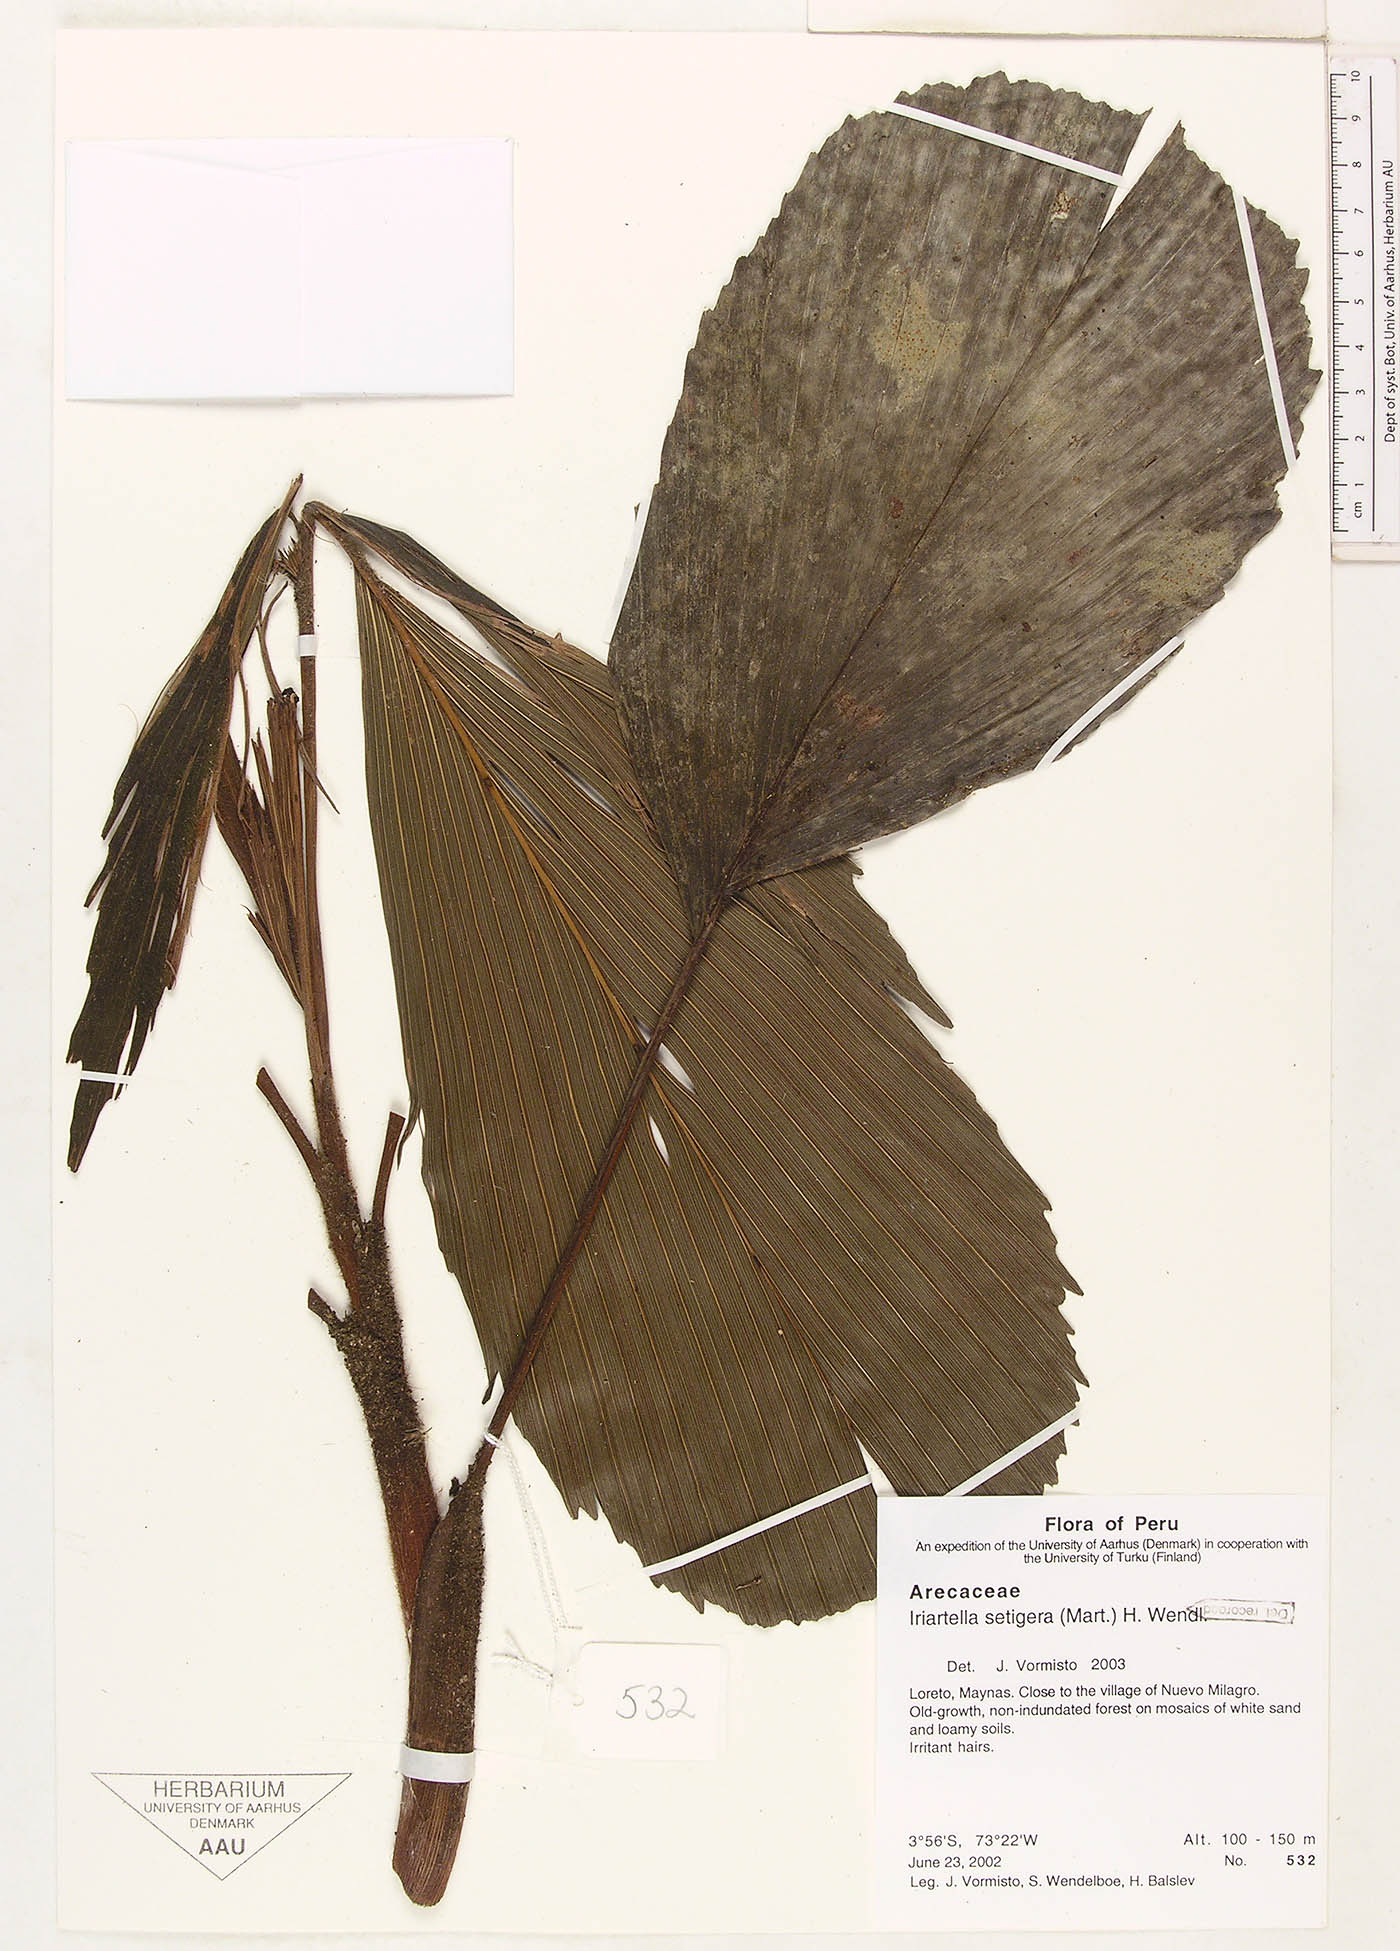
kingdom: Plantae
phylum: Tracheophyta
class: Liliopsida
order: Arecales
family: Arecaceae
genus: Iriartella
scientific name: Iriartella setigera
